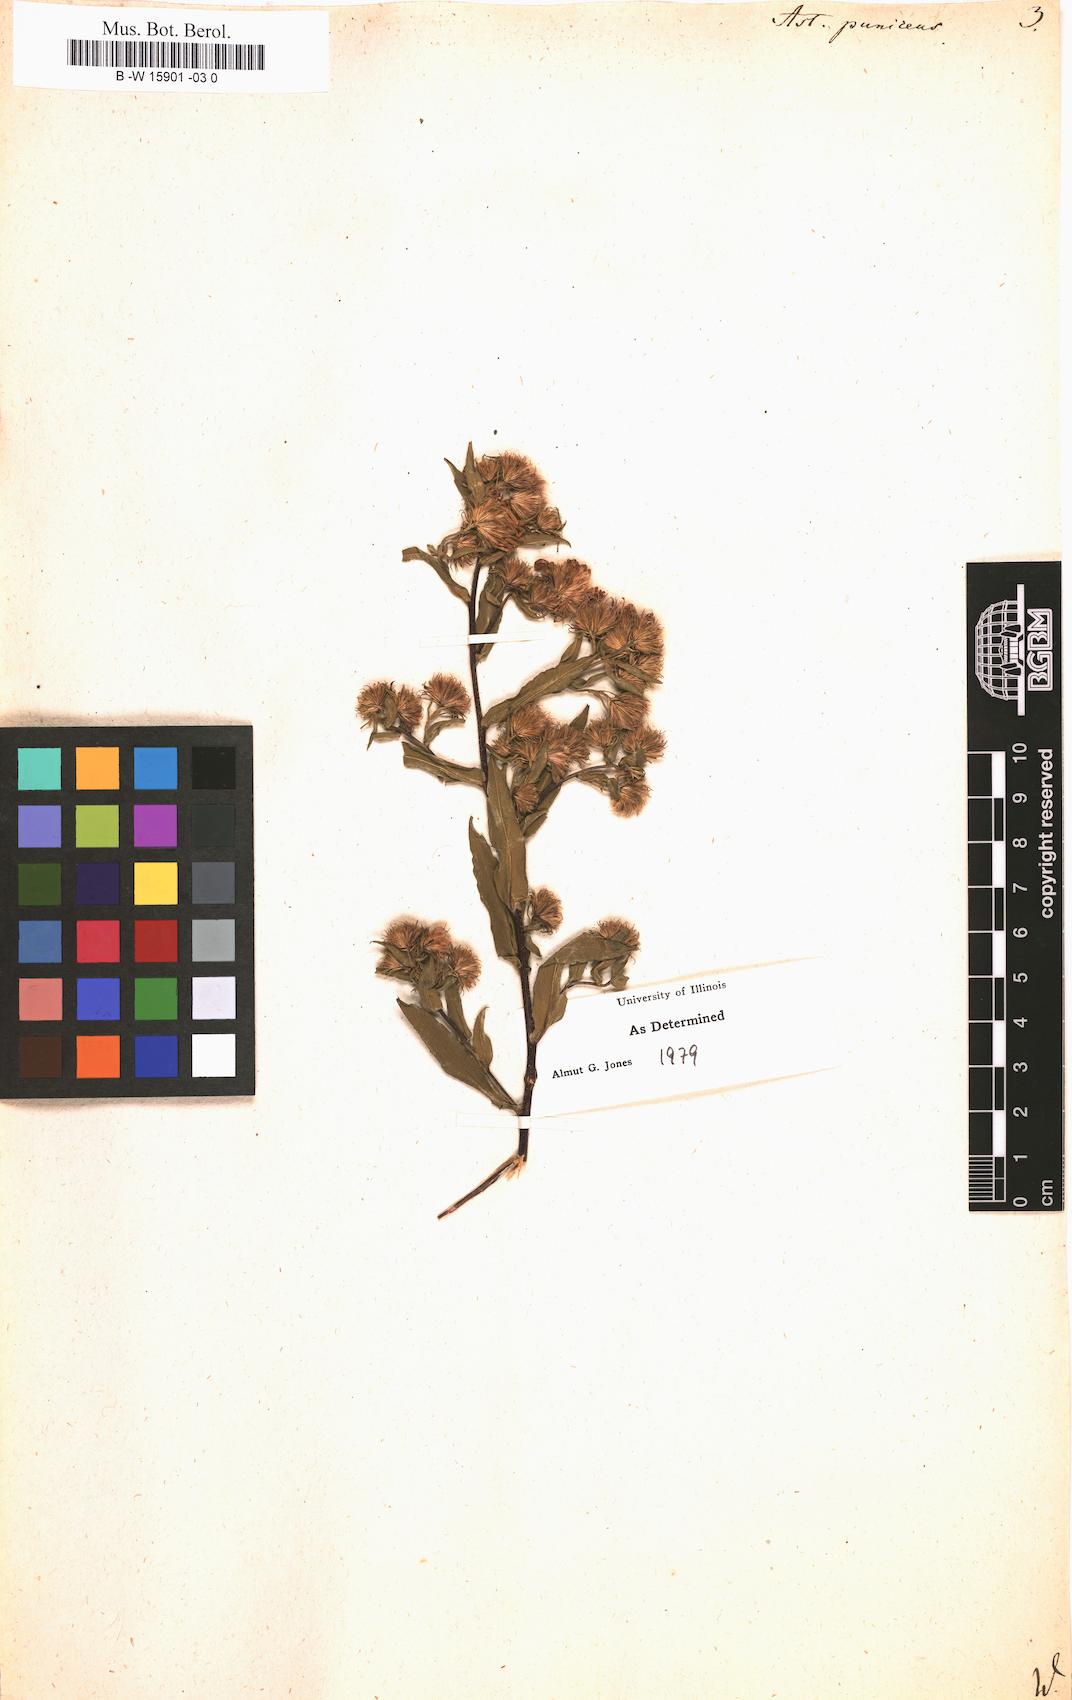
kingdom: Plantae
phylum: Tracheophyta
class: Magnoliopsida
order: Asterales
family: Asteraceae
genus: Symphyotrichum
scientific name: Symphyotrichum puniceum
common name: Bog aster
